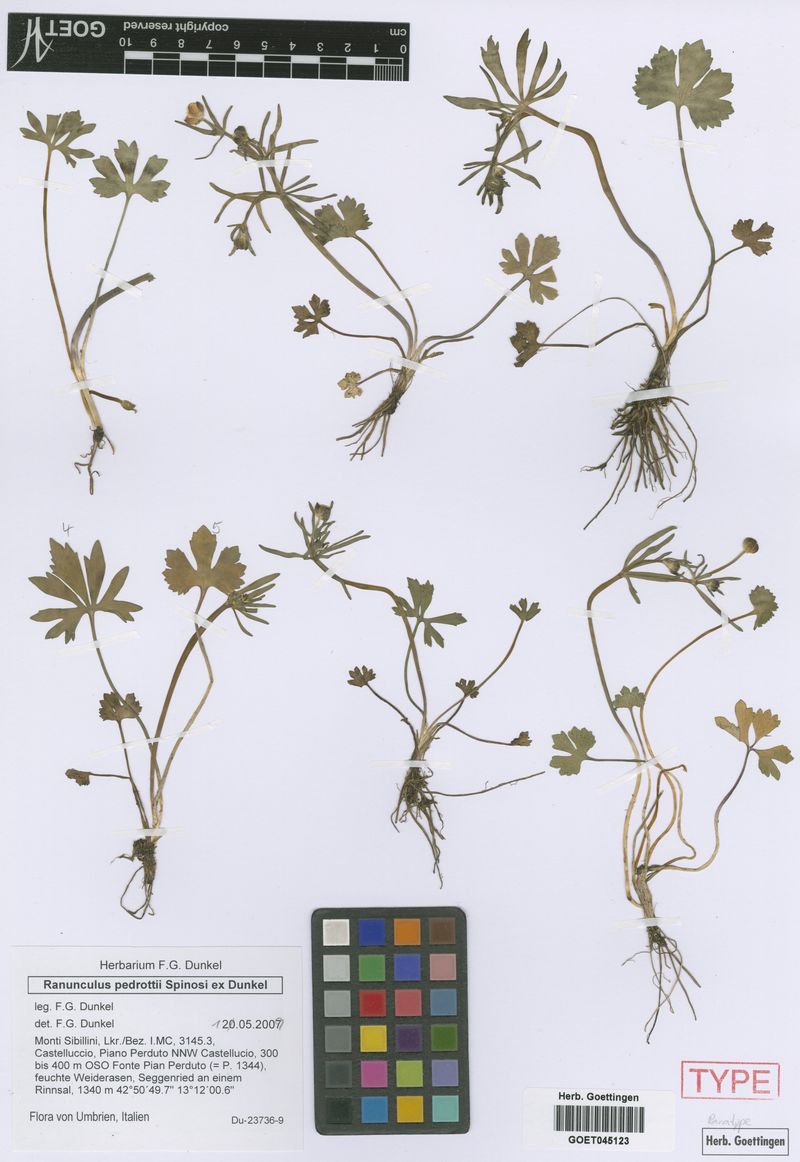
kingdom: Plantae
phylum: Tracheophyta
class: Magnoliopsida
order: Ranunculales
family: Ranunculaceae
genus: Ranunculus
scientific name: Ranunculus pedrottii
